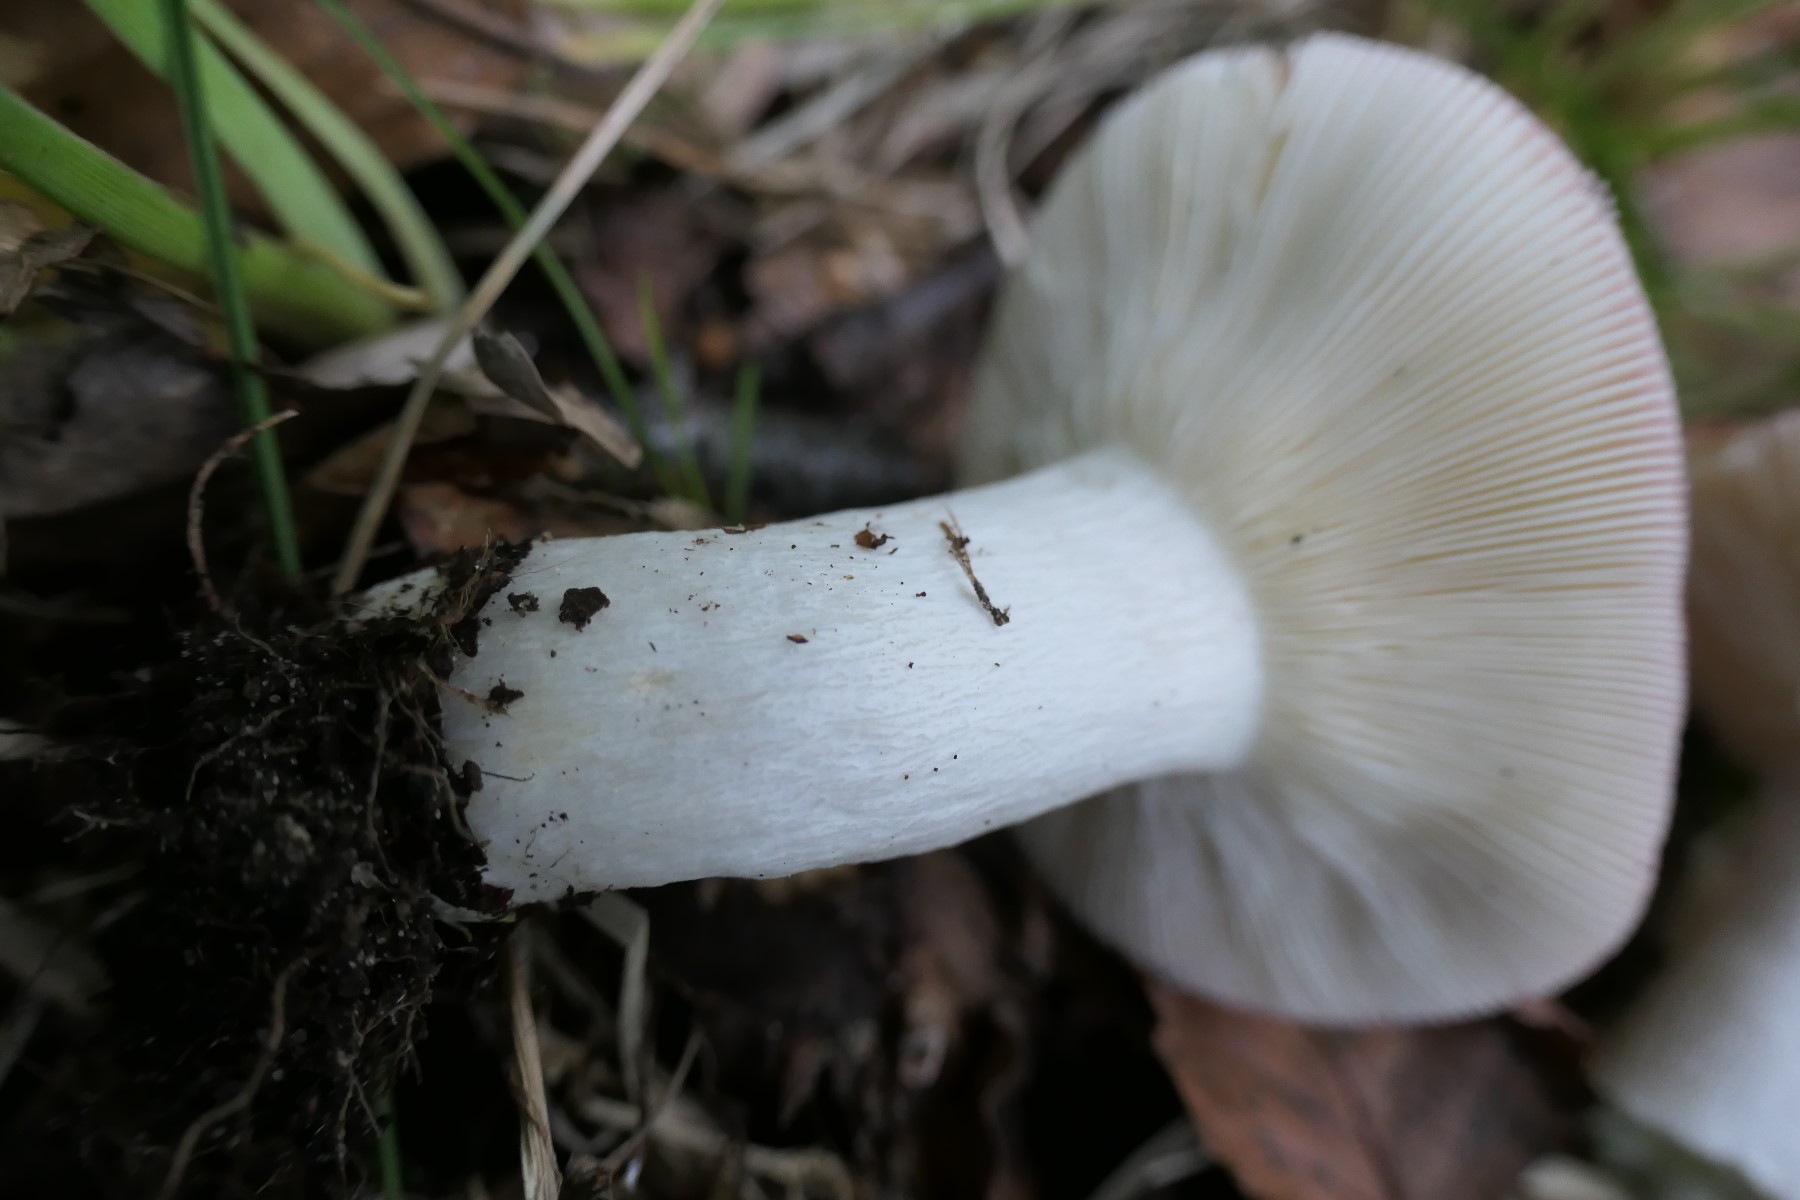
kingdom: Fungi
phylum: Basidiomycota
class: Agaricomycetes
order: Russulales
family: Russulaceae
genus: Russula
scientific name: Russula depallens
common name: falmende skørhat
